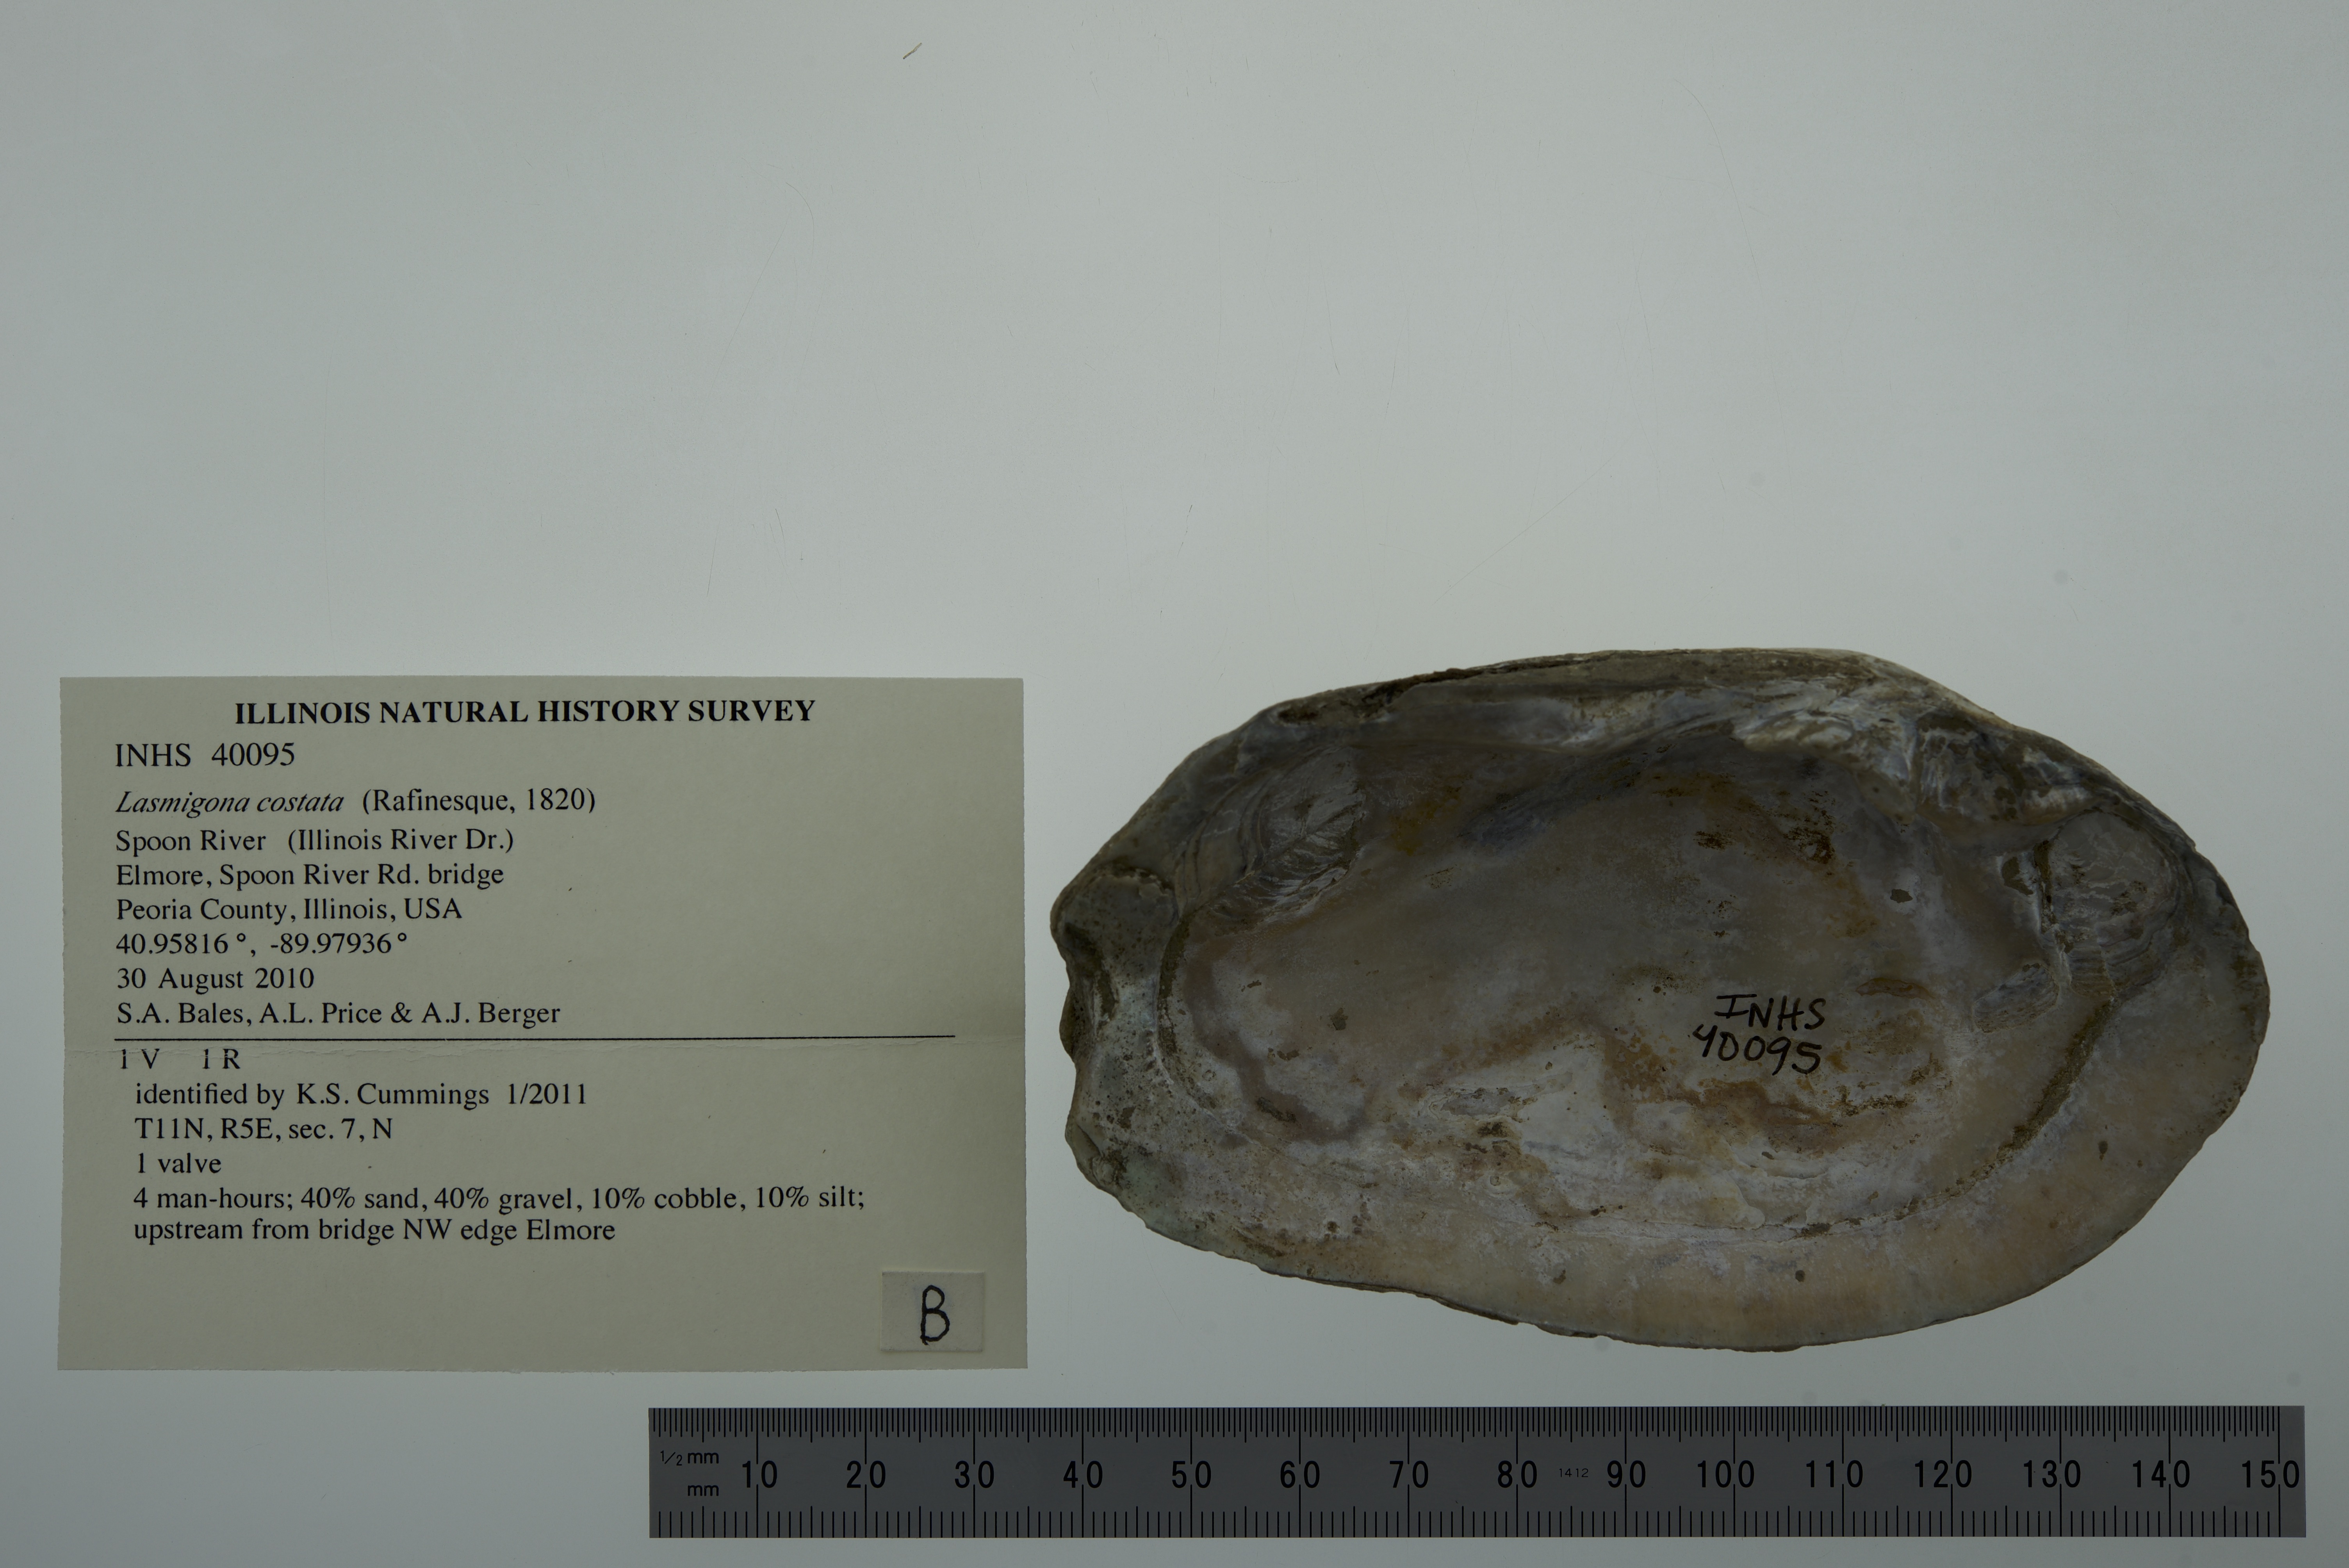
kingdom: Animalia
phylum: Mollusca
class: Bivalvia
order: Unionida
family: Unionidae
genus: Lasmigona
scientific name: Lasmigona costata
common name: Flutedshell
